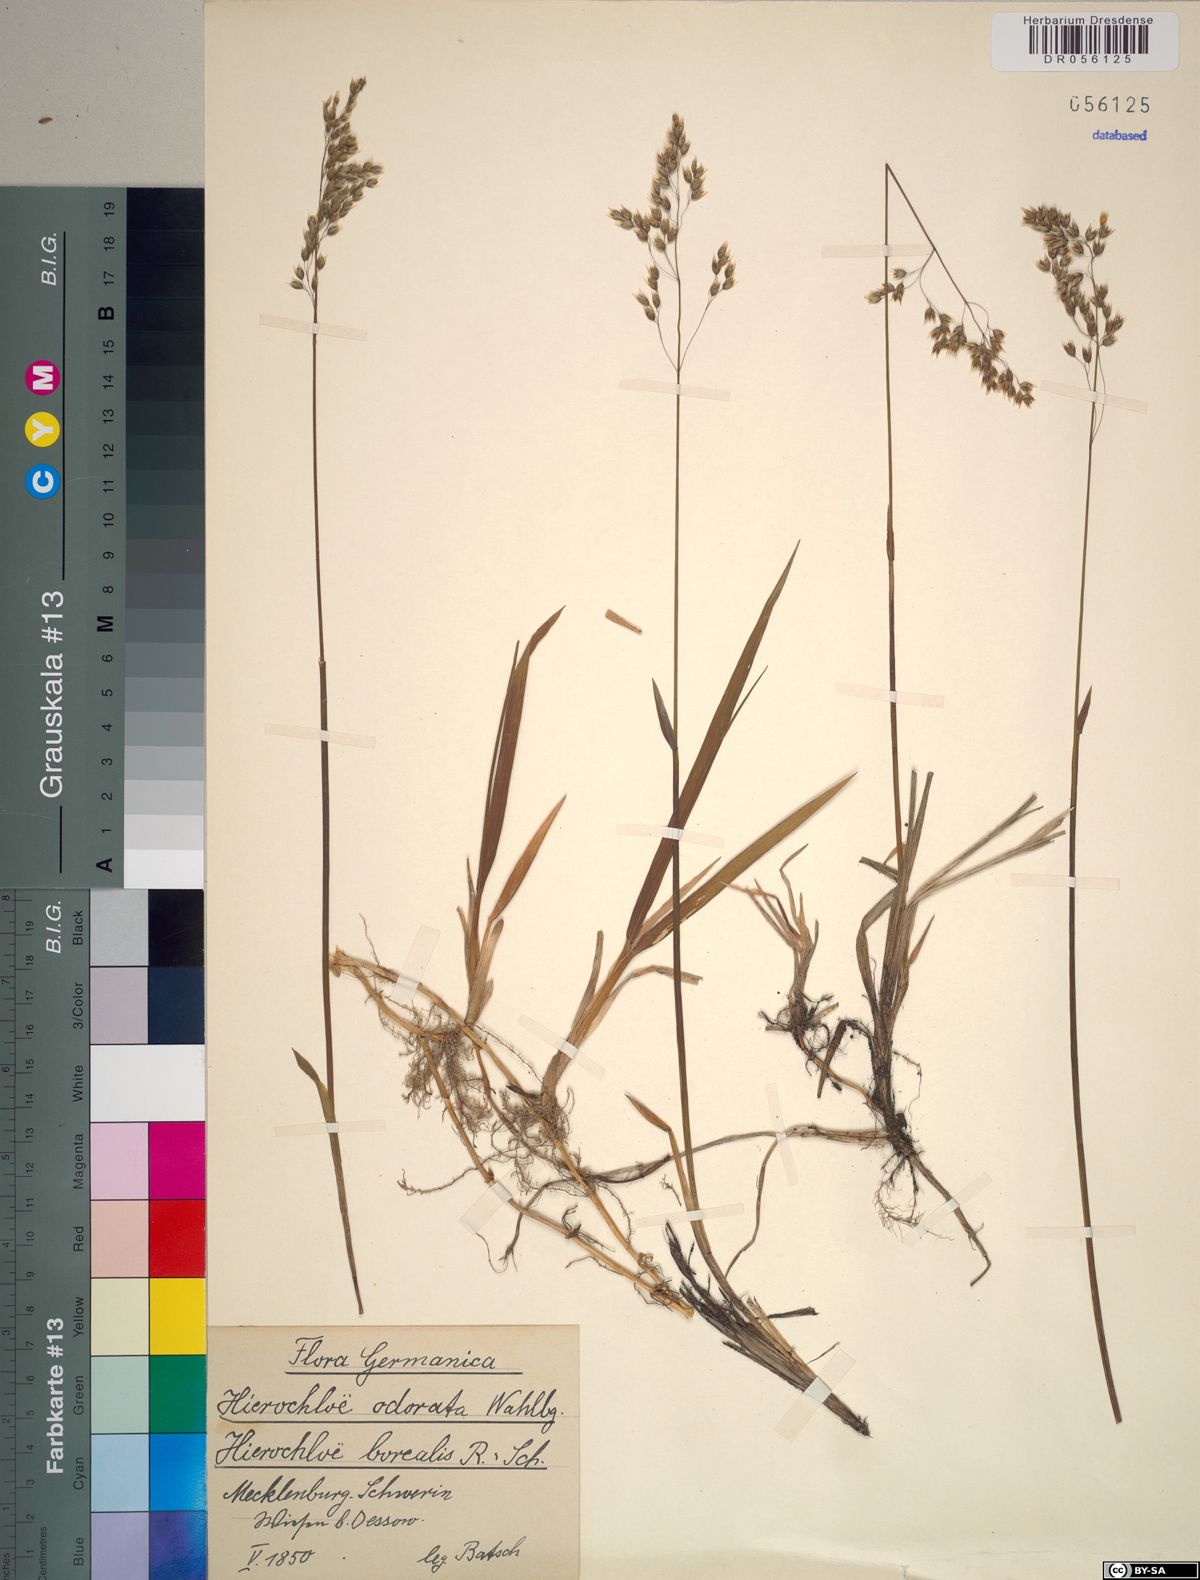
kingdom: Plantae
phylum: Tracheophyta
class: Liliopsida
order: Poales
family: Poaceae
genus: Anthoxanthum
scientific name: Anthoxanthum nitens
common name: Holy grass
